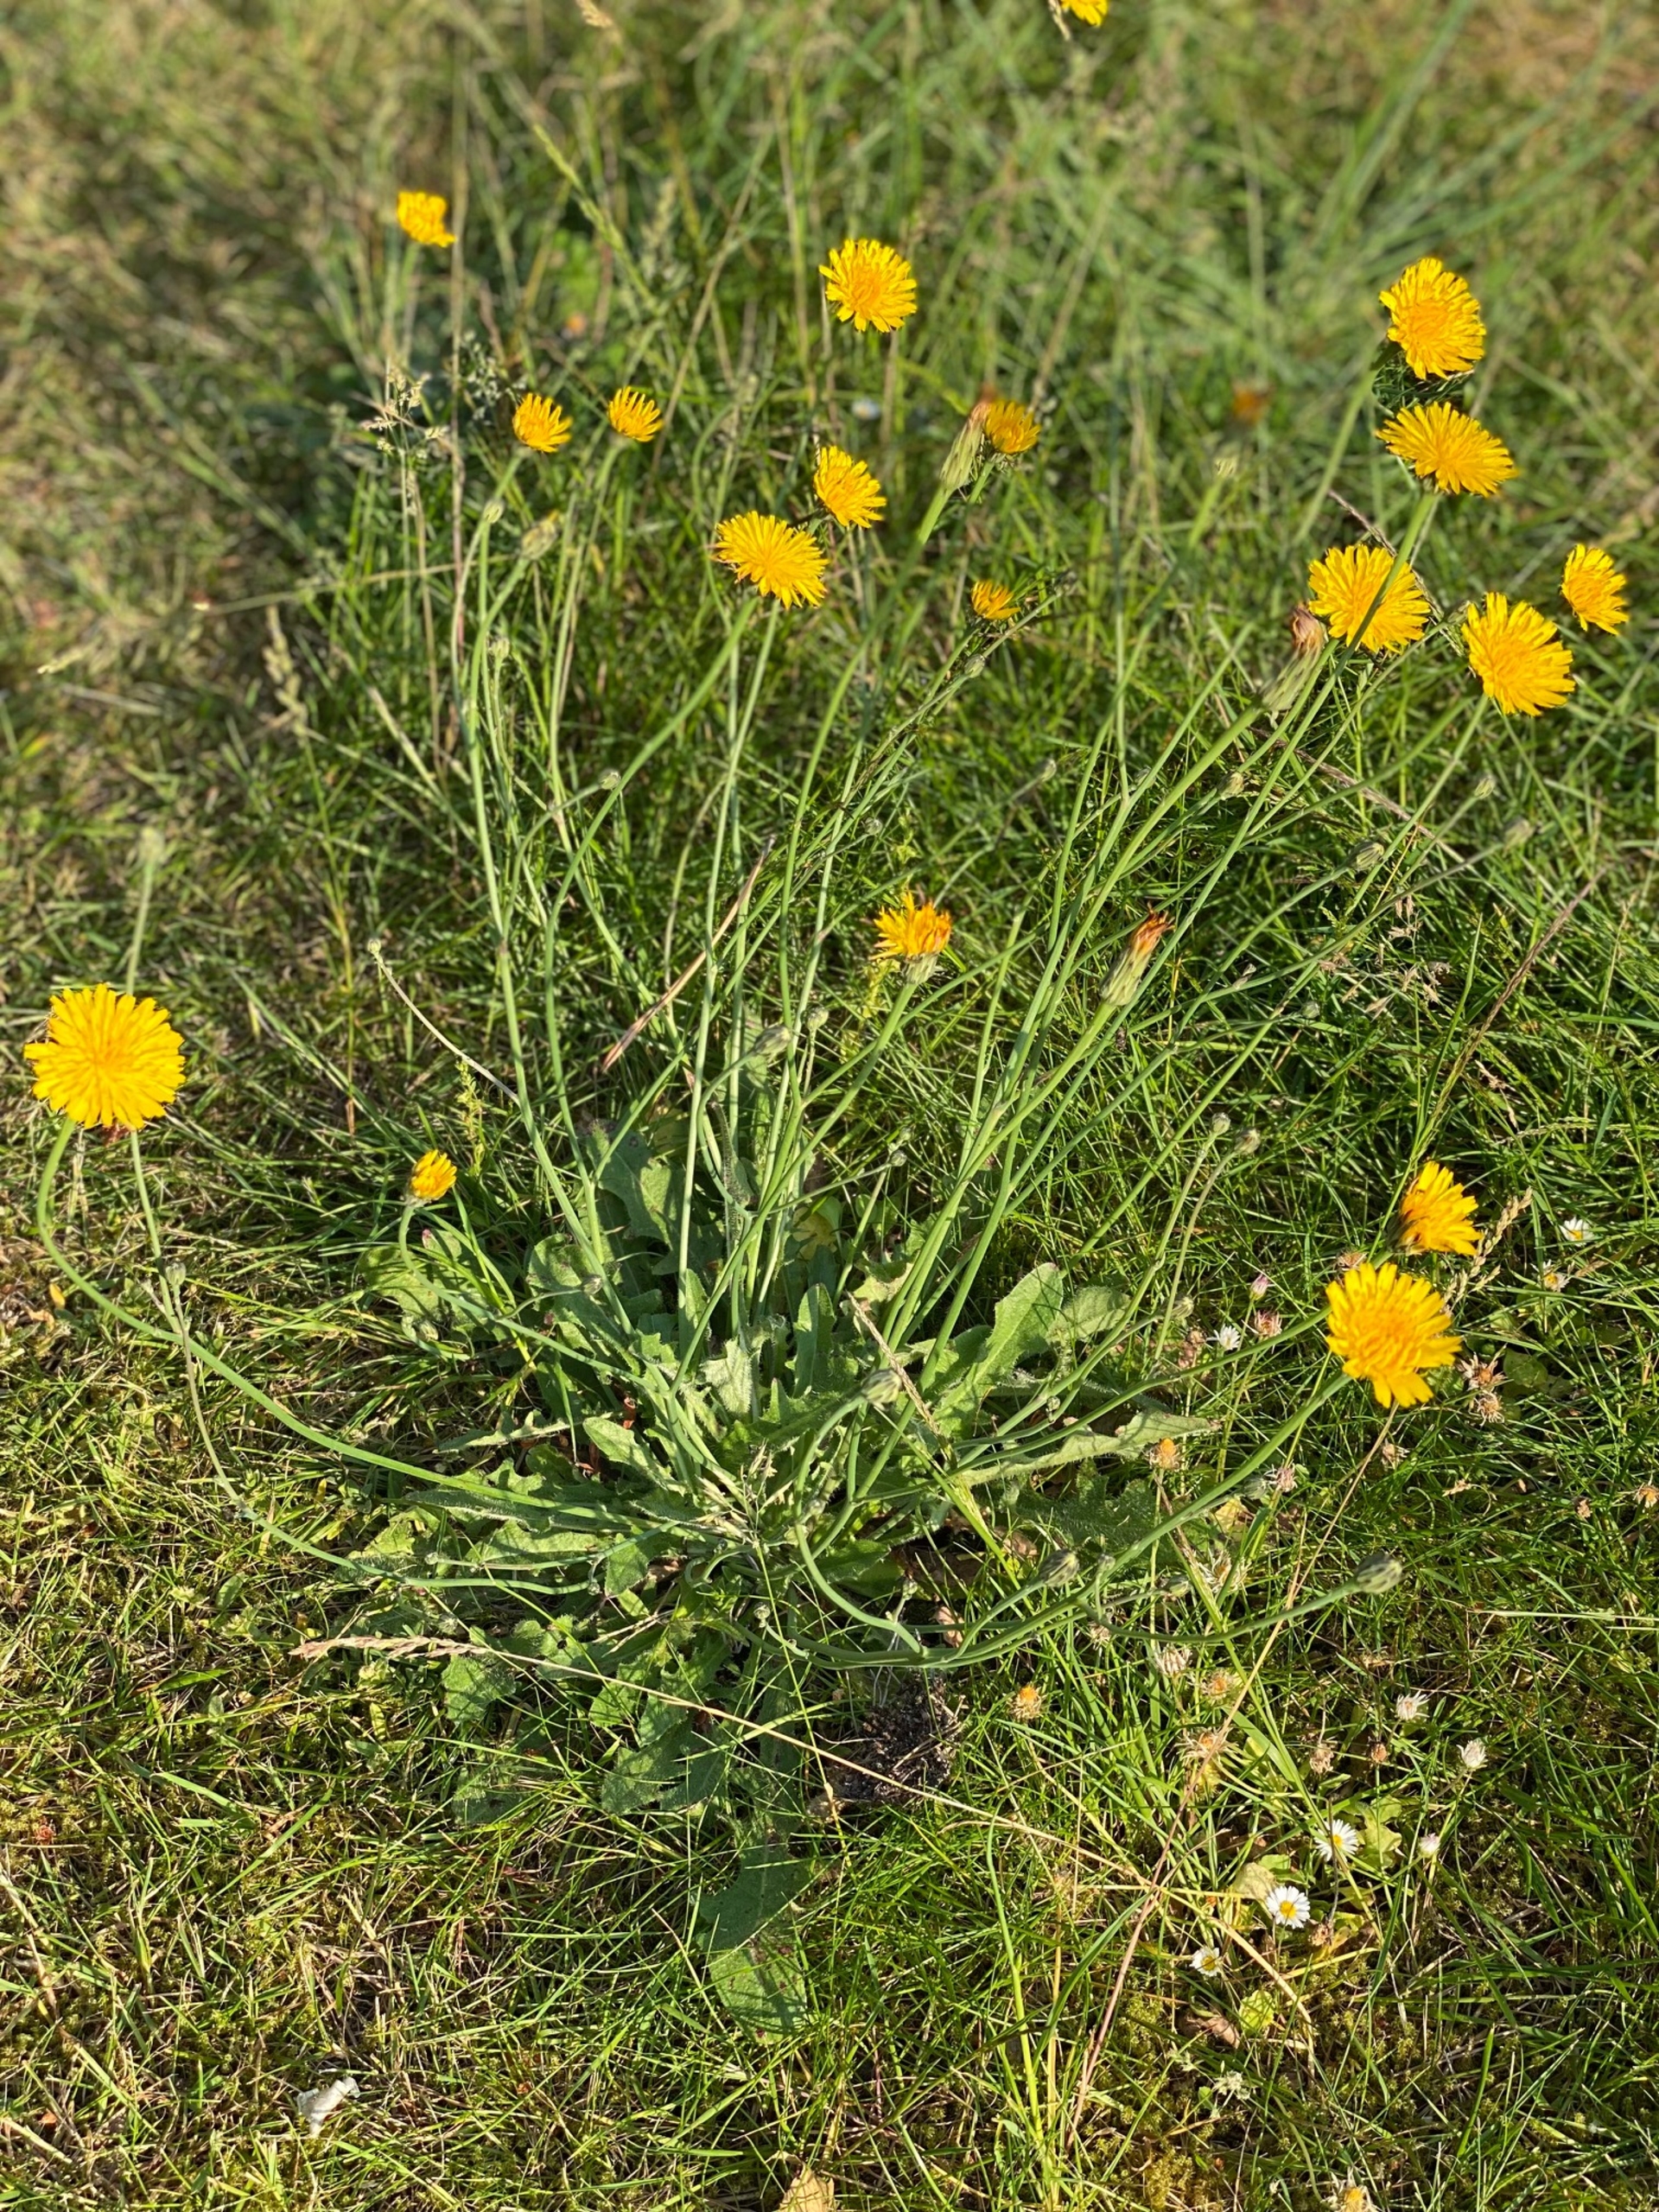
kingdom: Plantae
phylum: Tracheophyta
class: Magnoliopsida
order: Asterales
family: Asteraceae
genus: Hypochaeris
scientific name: Hypochaeris radicata
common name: Almindelig kongepen
